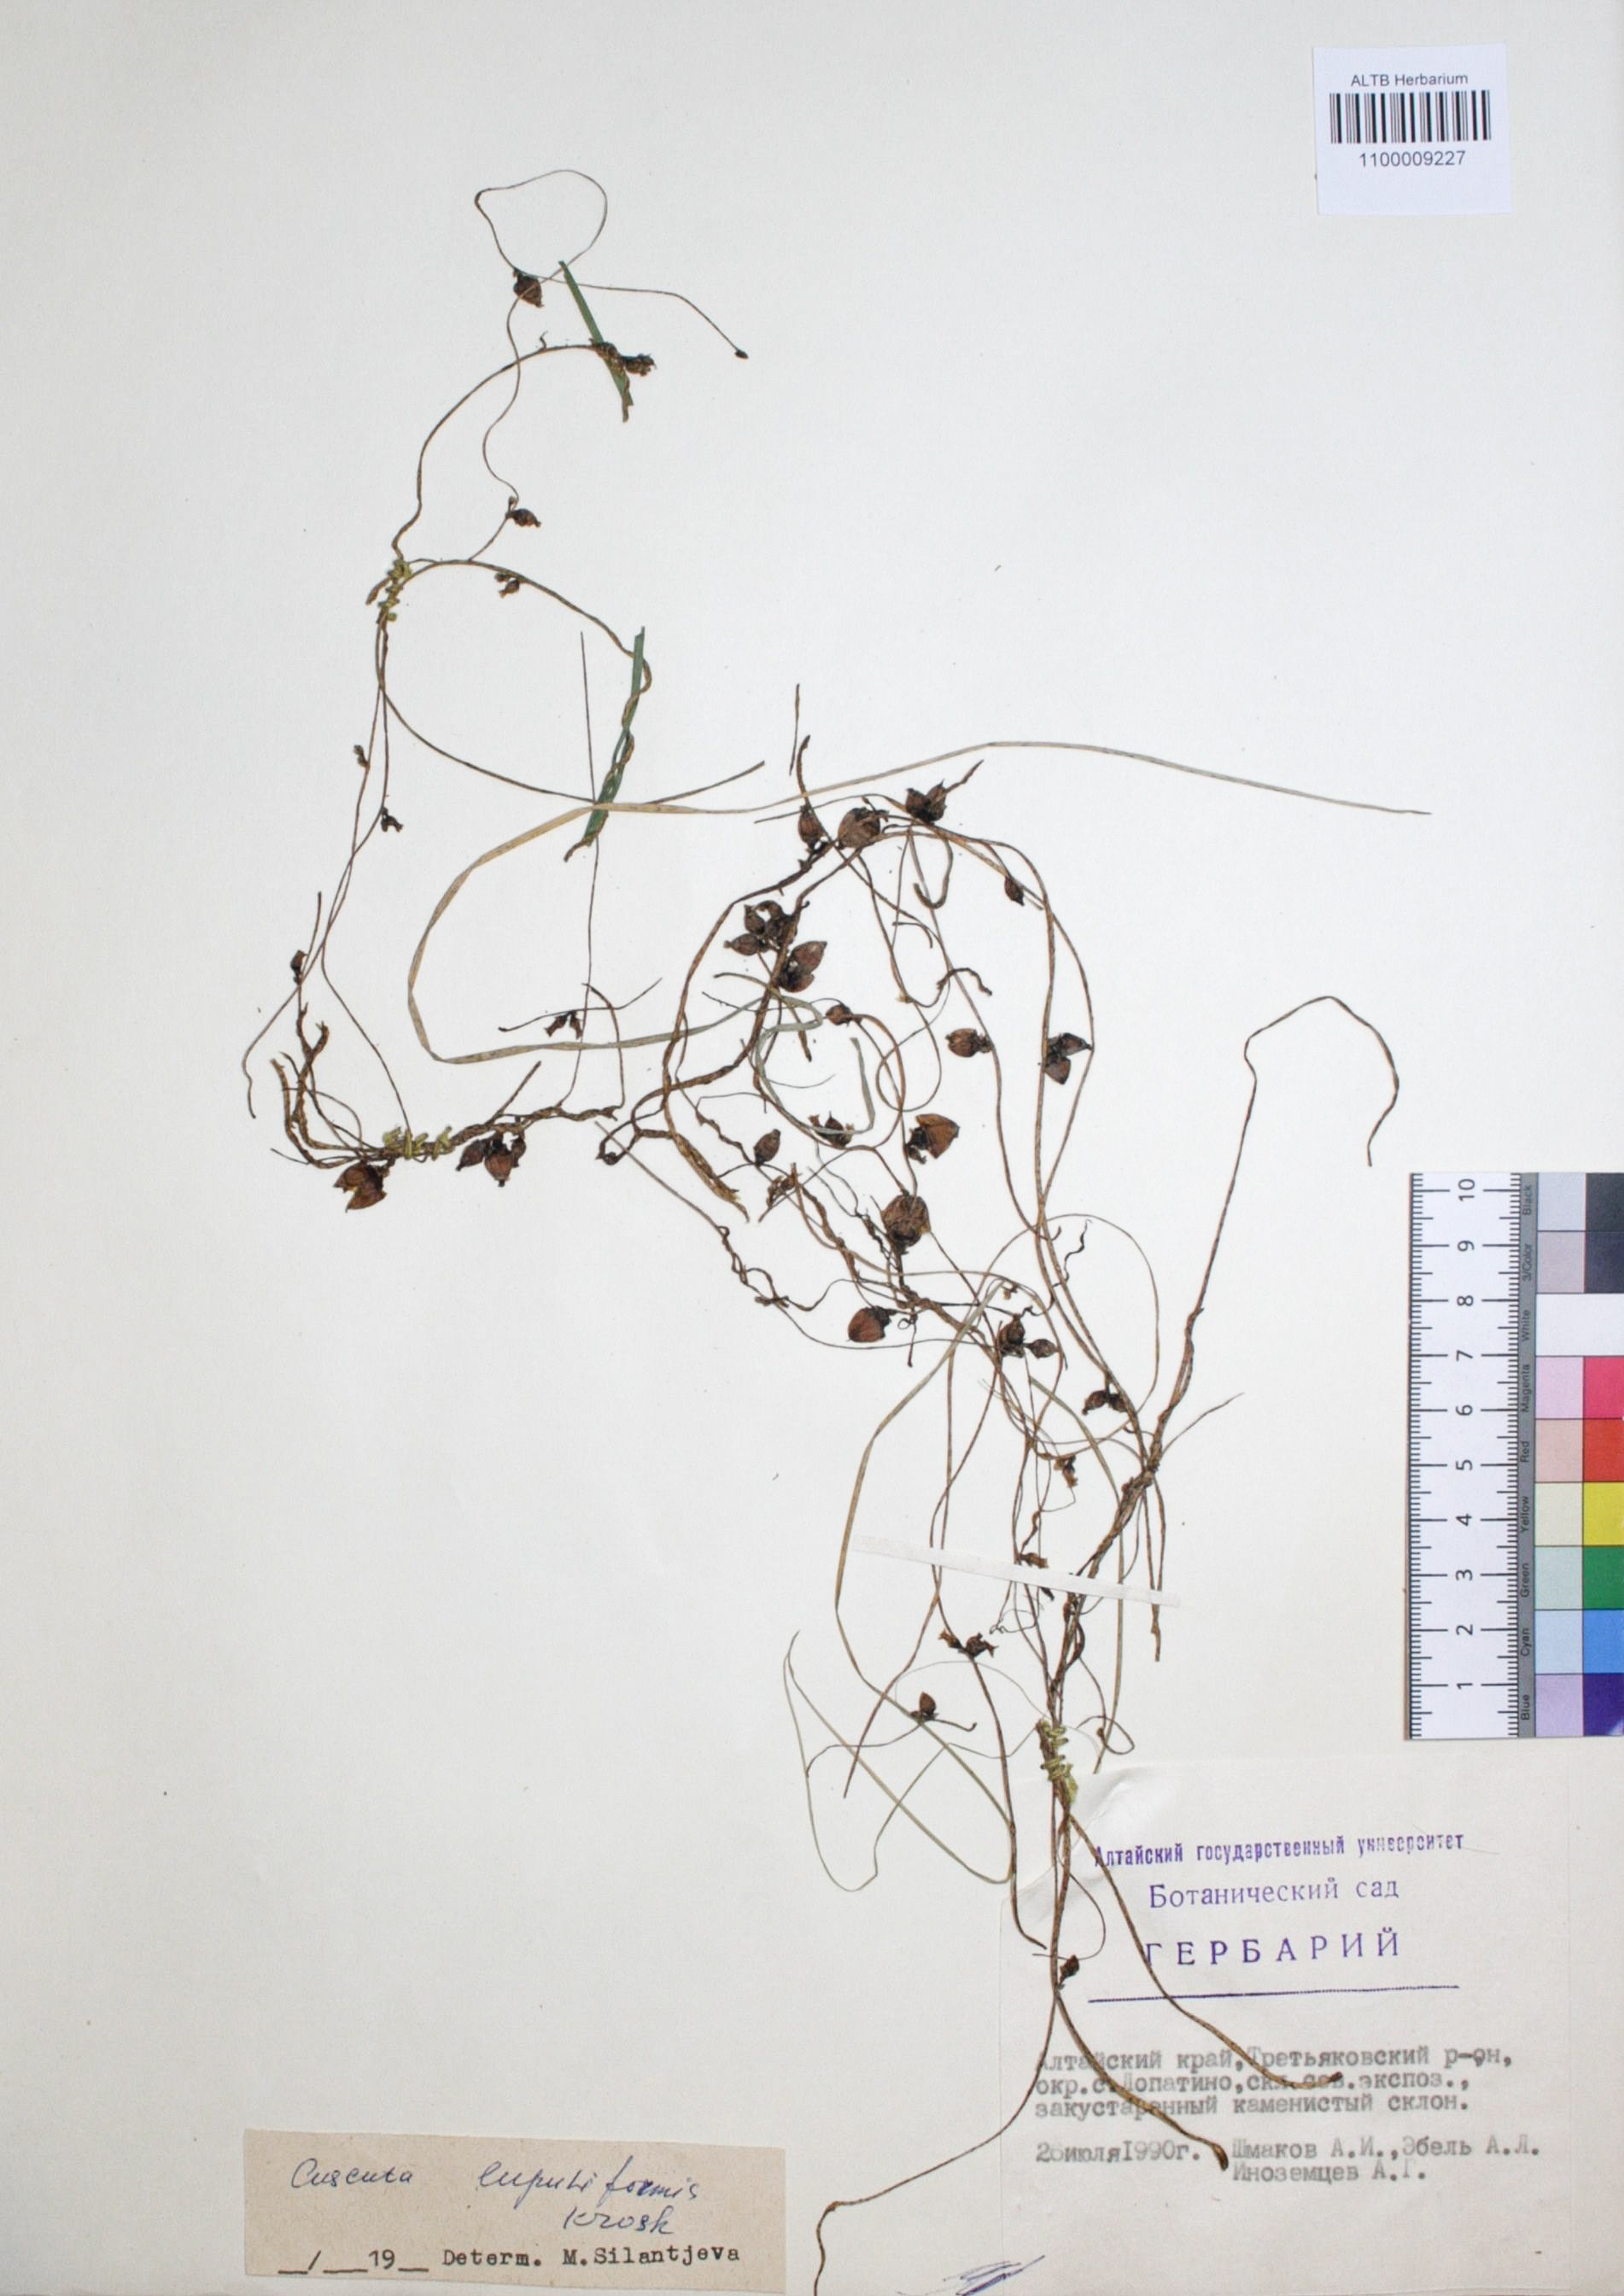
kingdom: Plantae
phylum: Tracheophyta
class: Magnoliopsida
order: Solanales
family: Convolvulaceae
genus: Cuscuta
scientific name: Cuscuta lupuliformis
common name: Hop dodder
